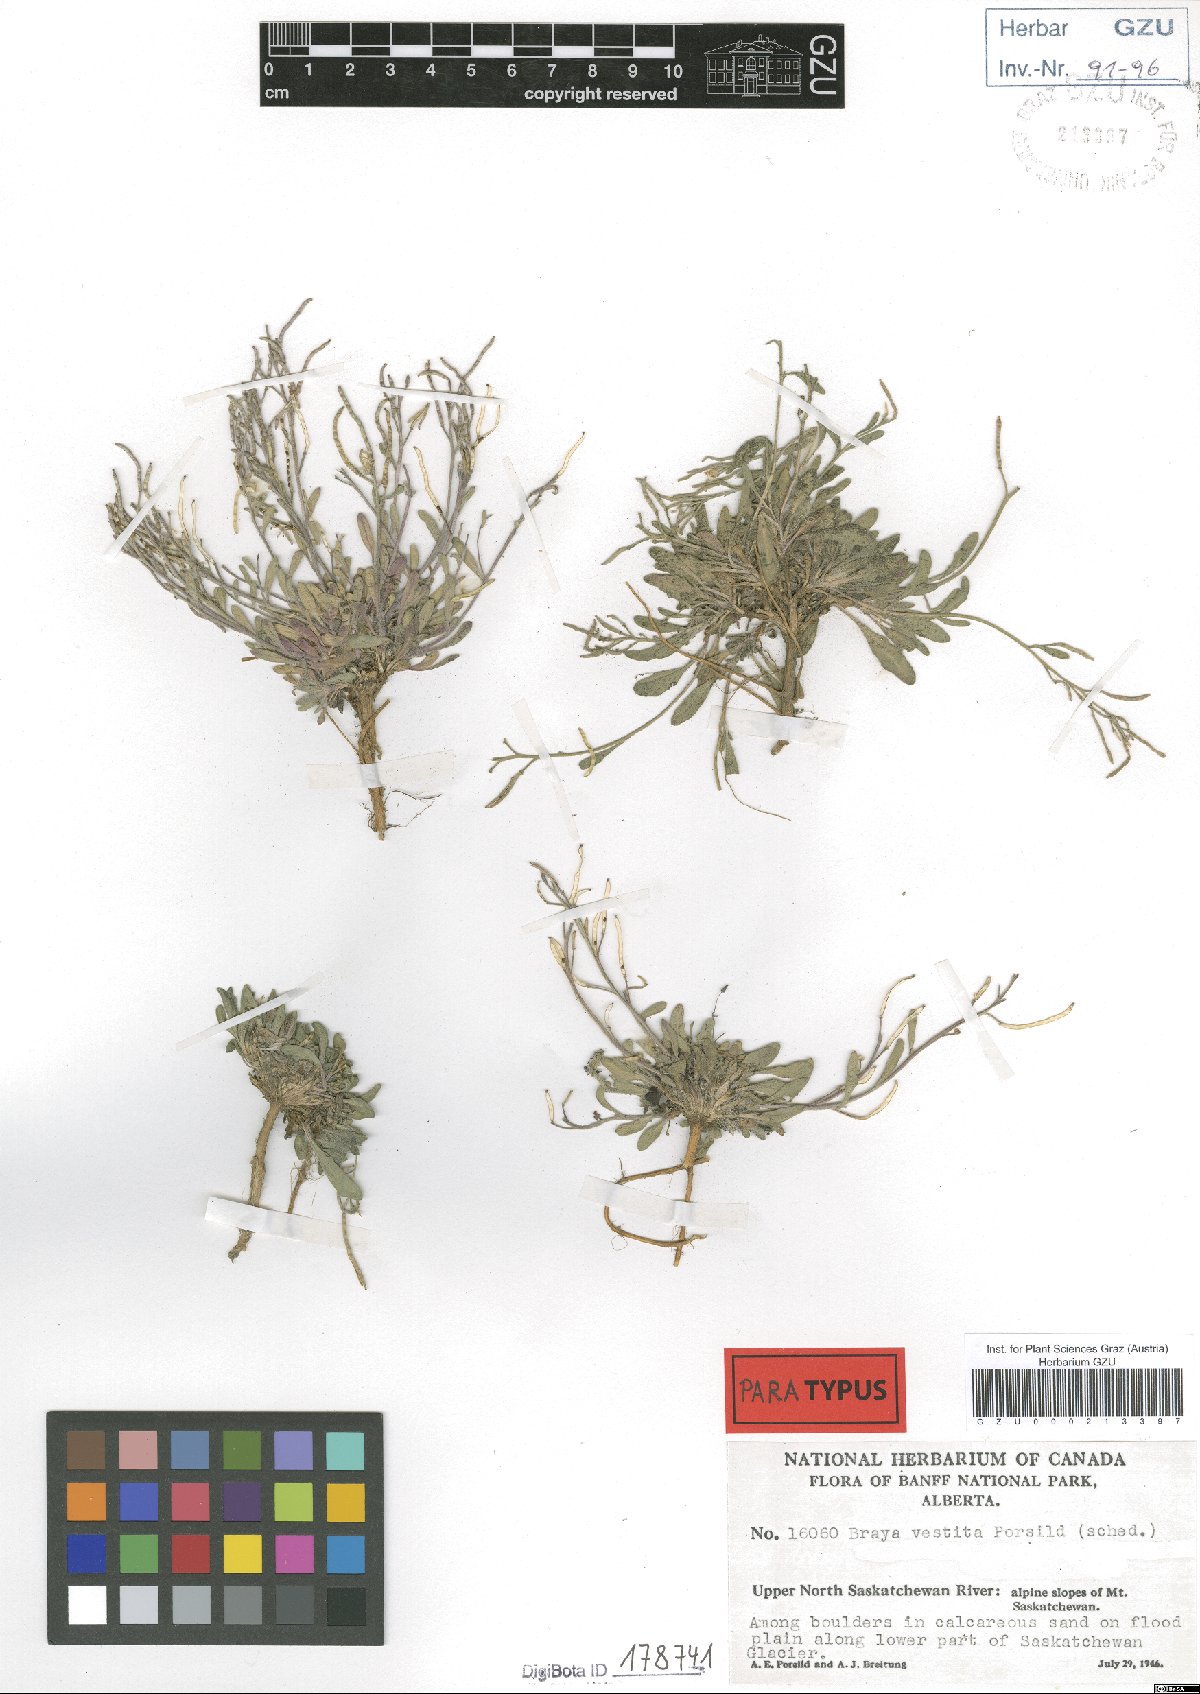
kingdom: Plantae
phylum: Tracheophyta
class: Magnoliopsida
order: Brassicales
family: Brassicaceae
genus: Braya
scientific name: Braya humilis
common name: Alpine northern rockcress
